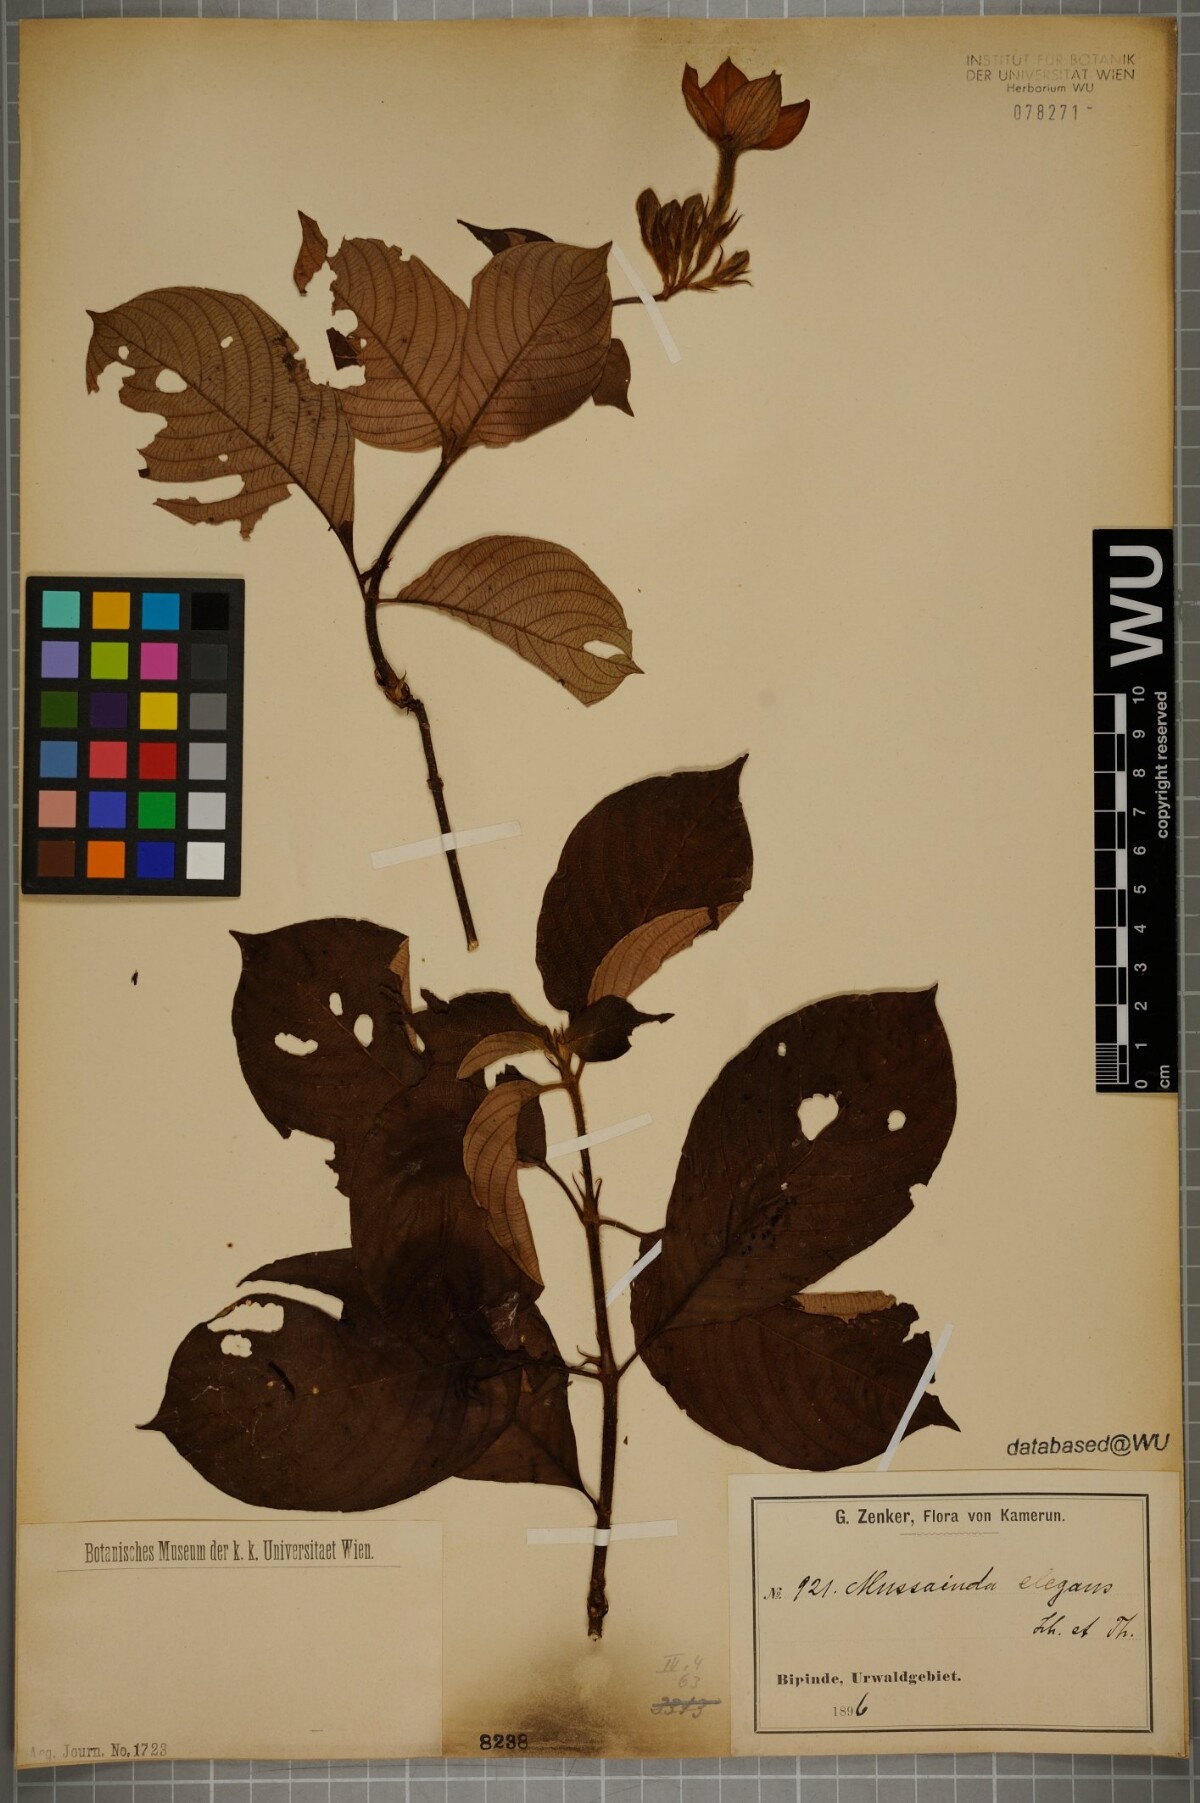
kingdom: Plantae
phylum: Tracheophyta
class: Magnoliopsida
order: Gentianales
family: Rubiaceae
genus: Mussaenda
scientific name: Mussaenda elegans
